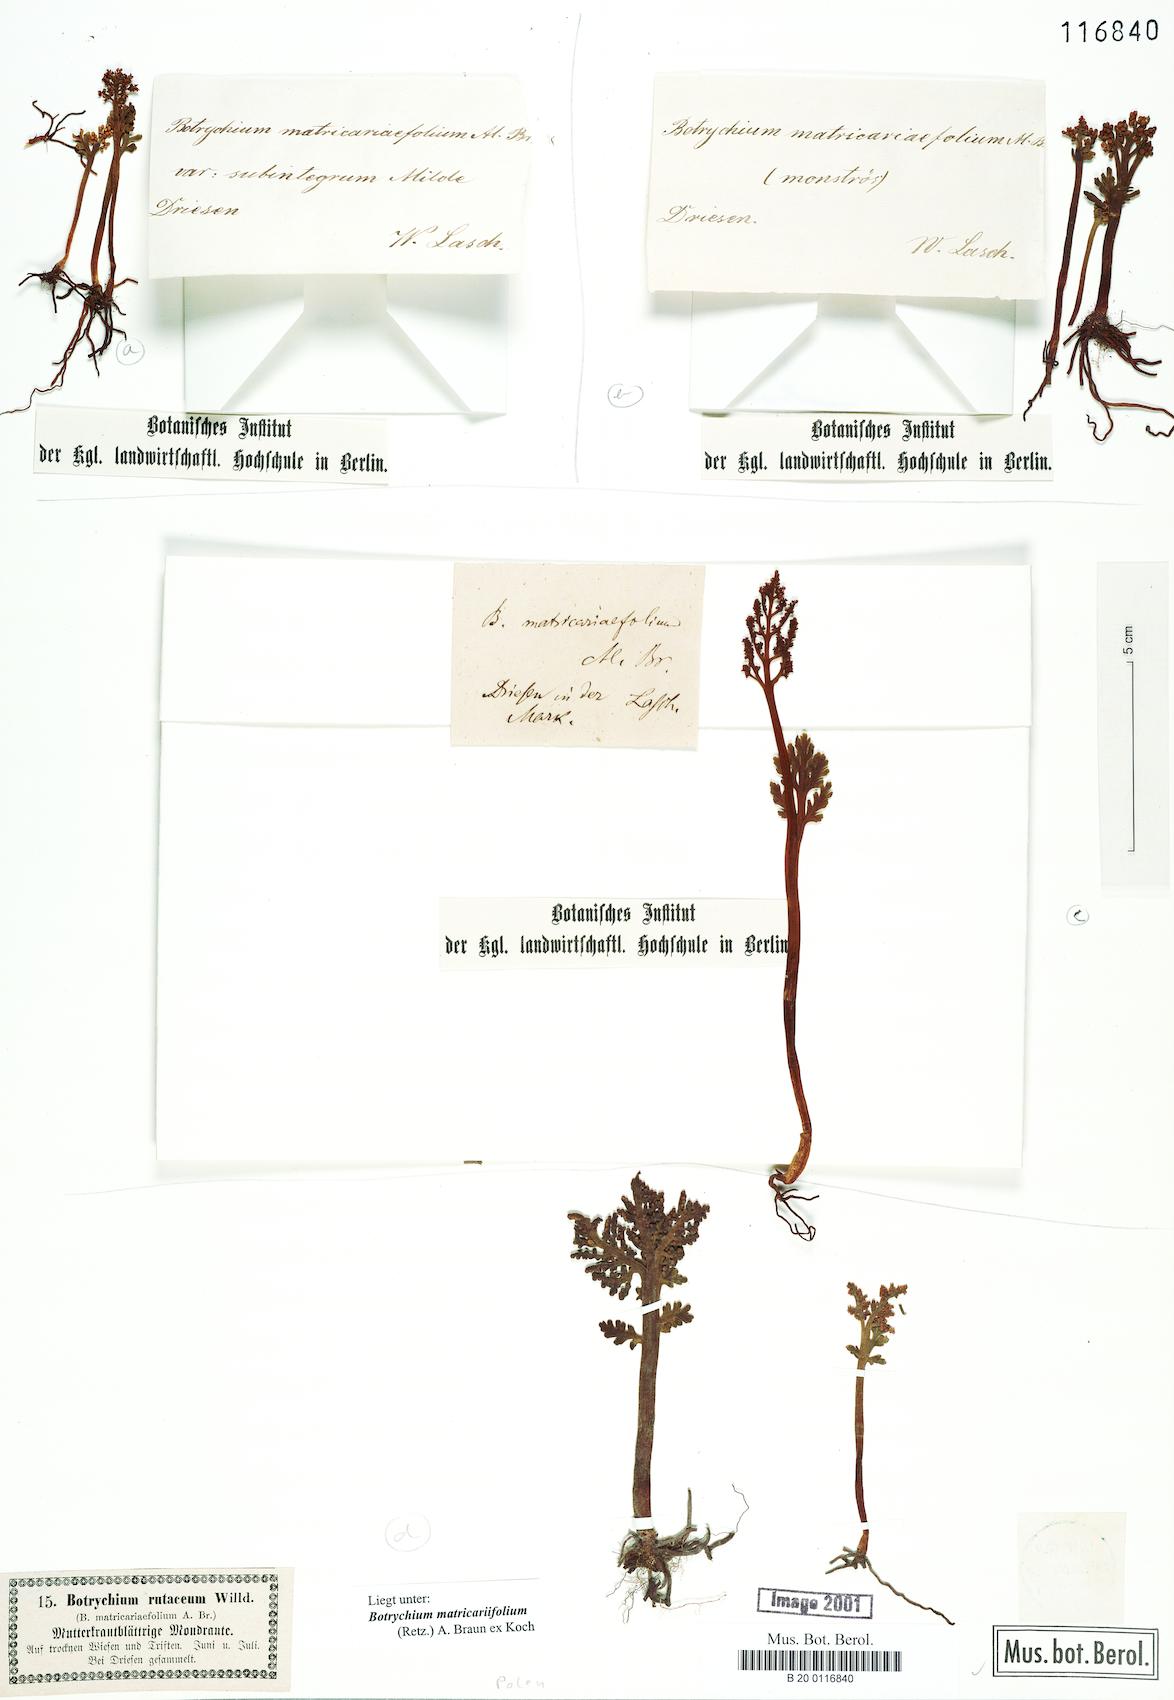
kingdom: Plantae
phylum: Tracheophyta
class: Polypodiopsida
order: Ophioglossales
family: Ophioglossaceae
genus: Botrychium
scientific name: Botrychium matricariifolium
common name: Branched moonwort
